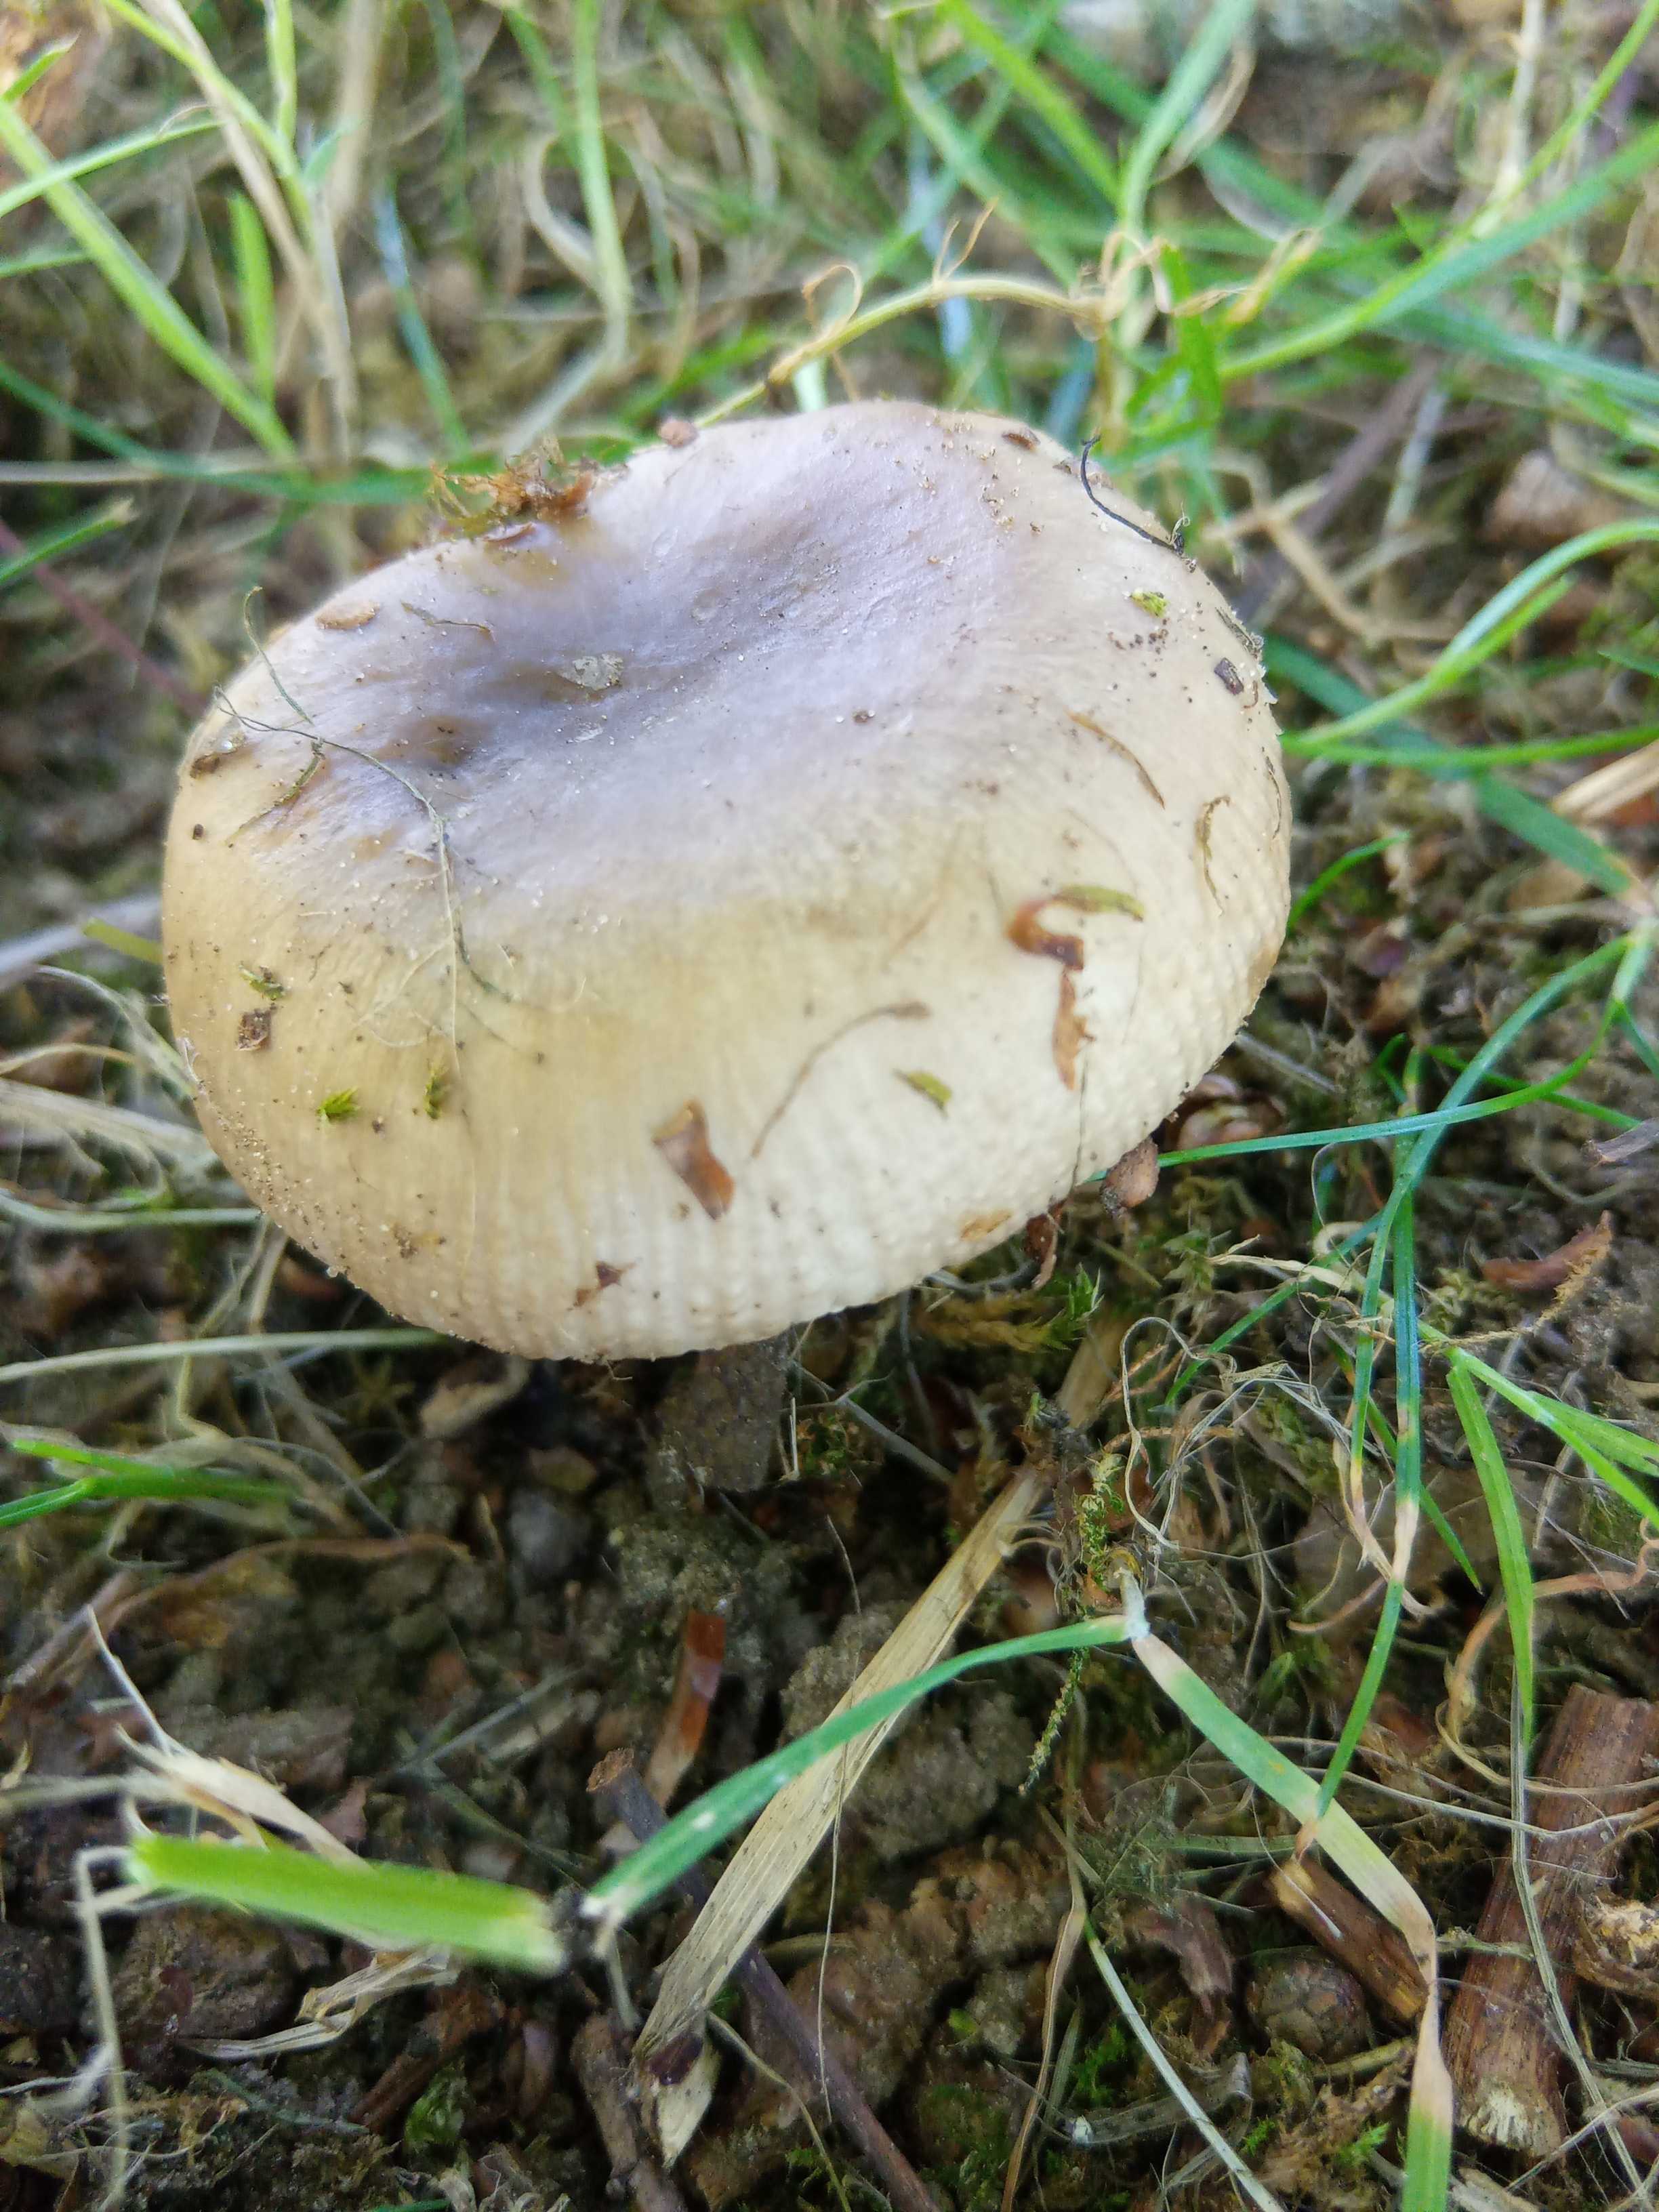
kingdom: Fungi
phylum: Basidiomycota
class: Agaricomycetes
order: Russulales
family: Russulaceae
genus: Russula
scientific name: Russula
